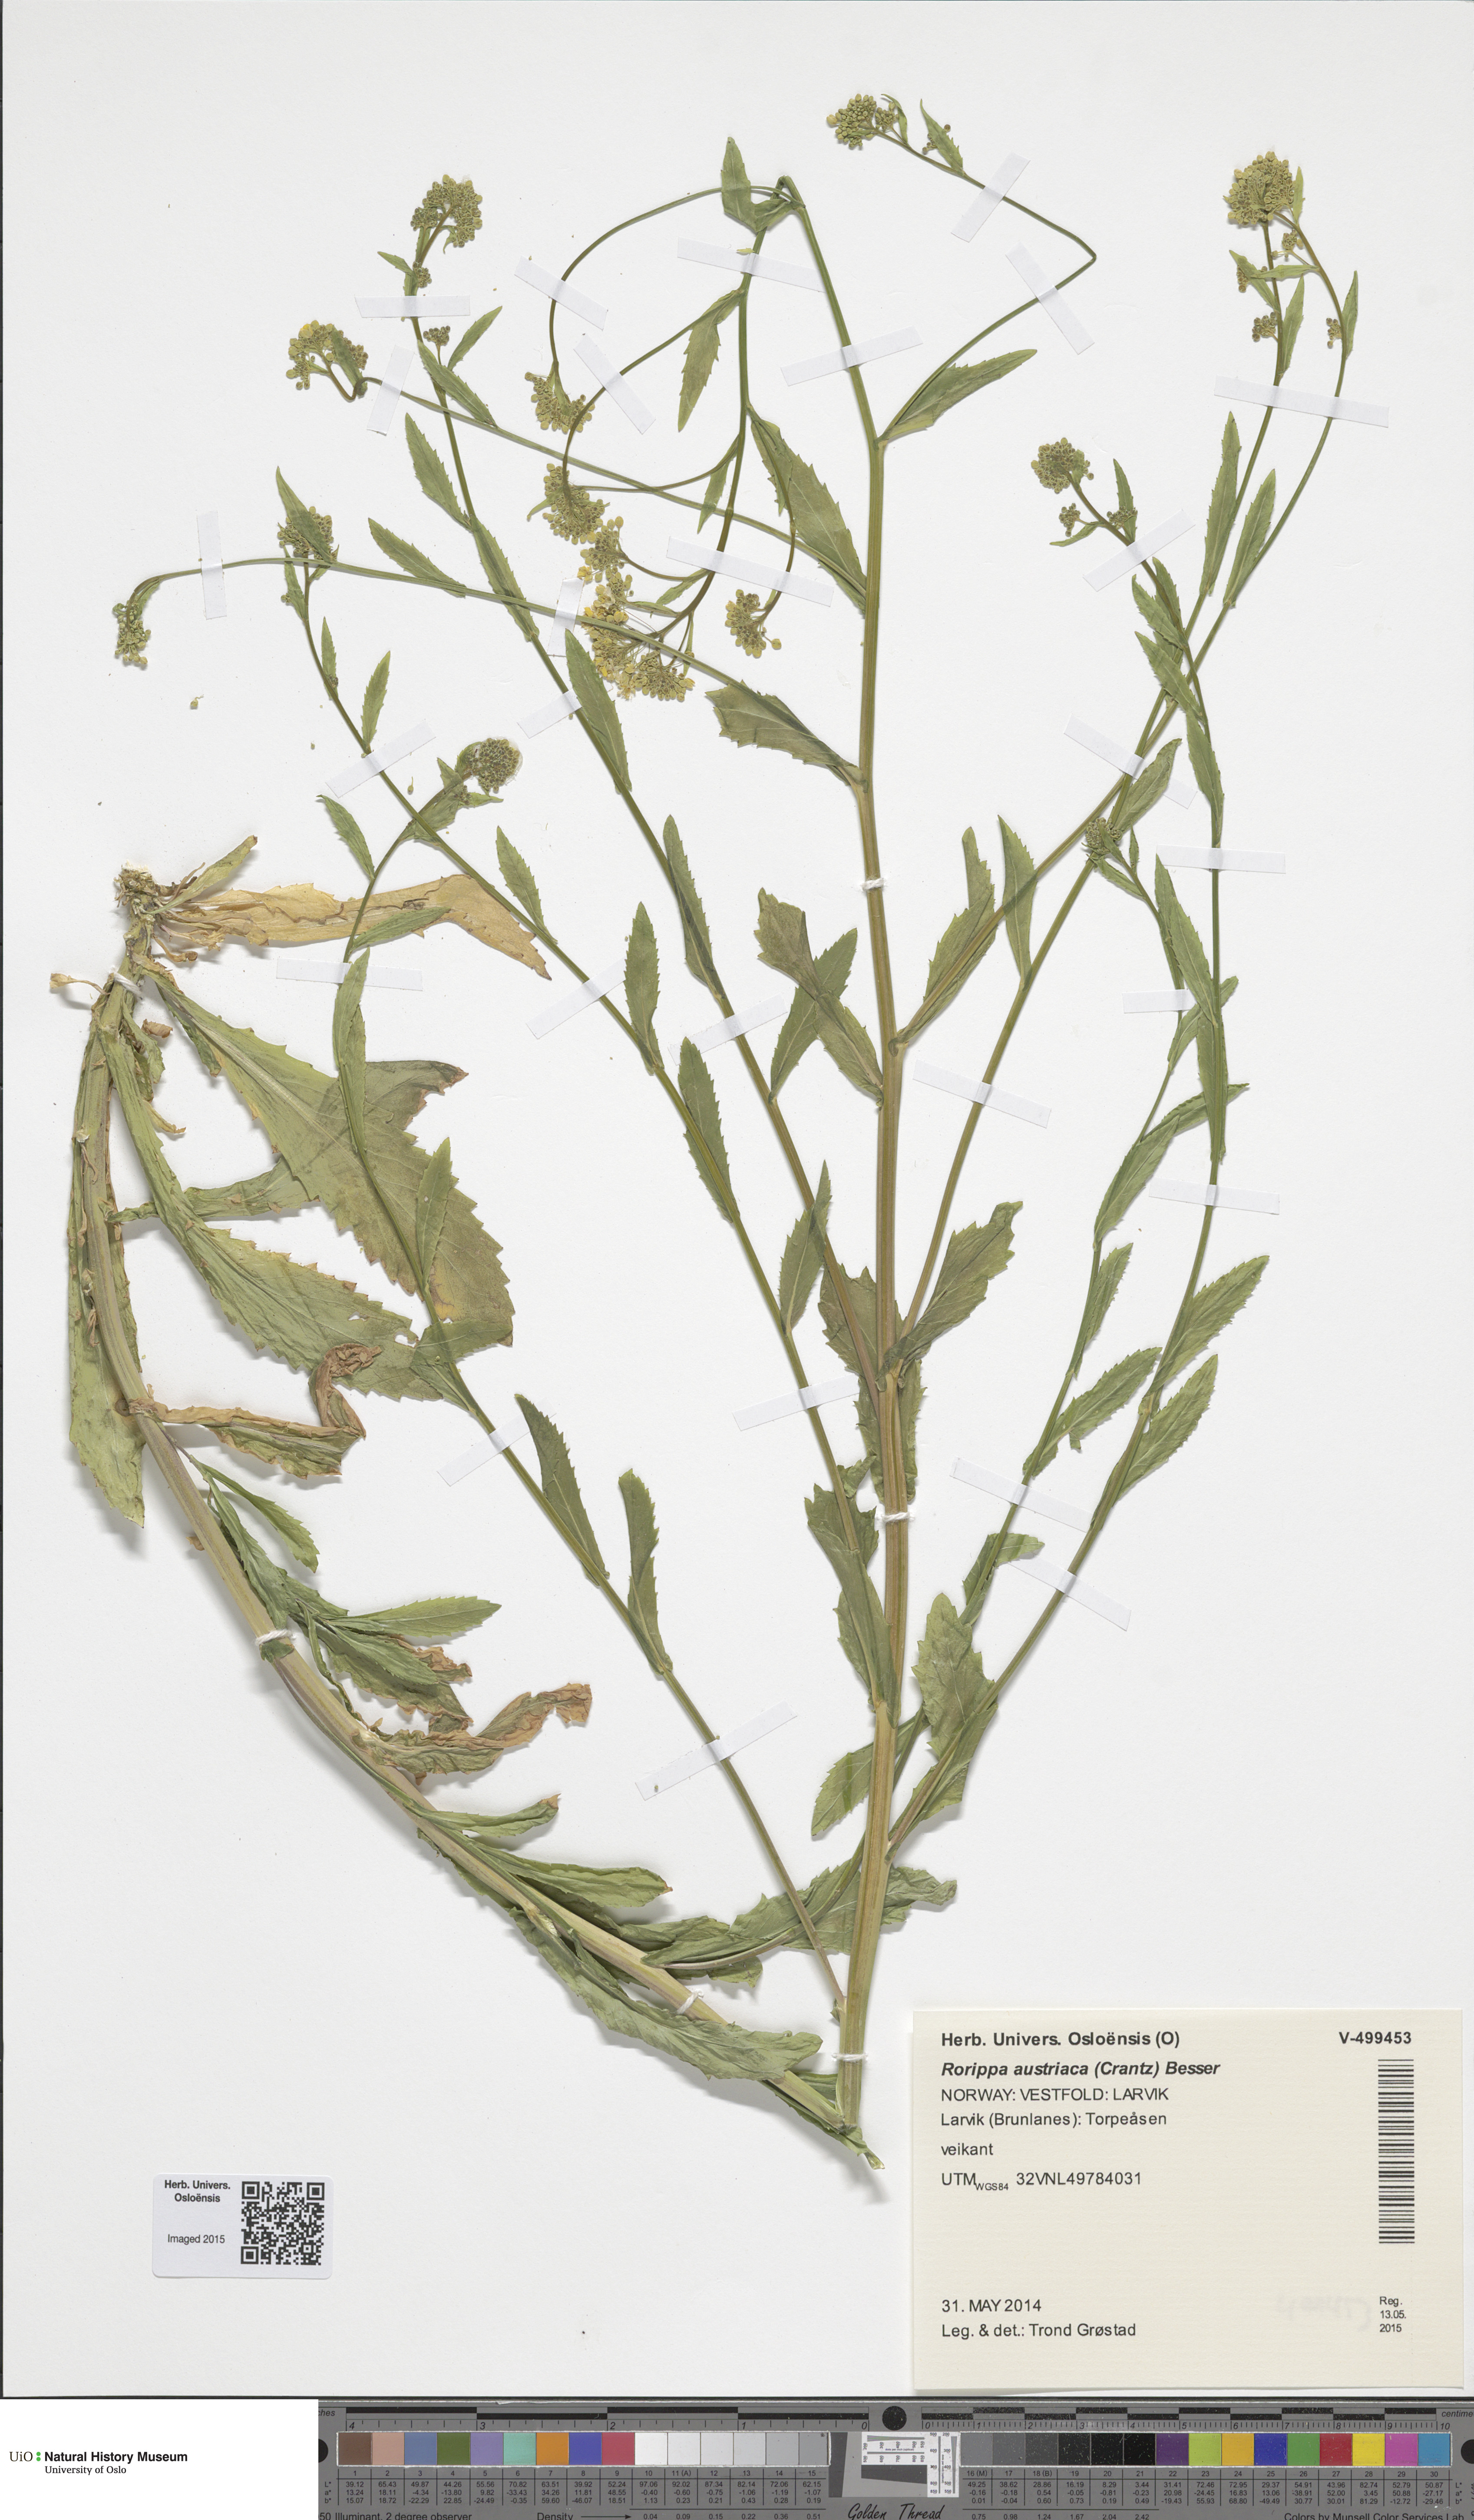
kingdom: Plantae
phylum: Tracheophyta
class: Magnoliopsida
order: Brassicales
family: Brassicaceae
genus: Rorippa
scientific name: Rorippa austriaca
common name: Austrian yellow-cress
